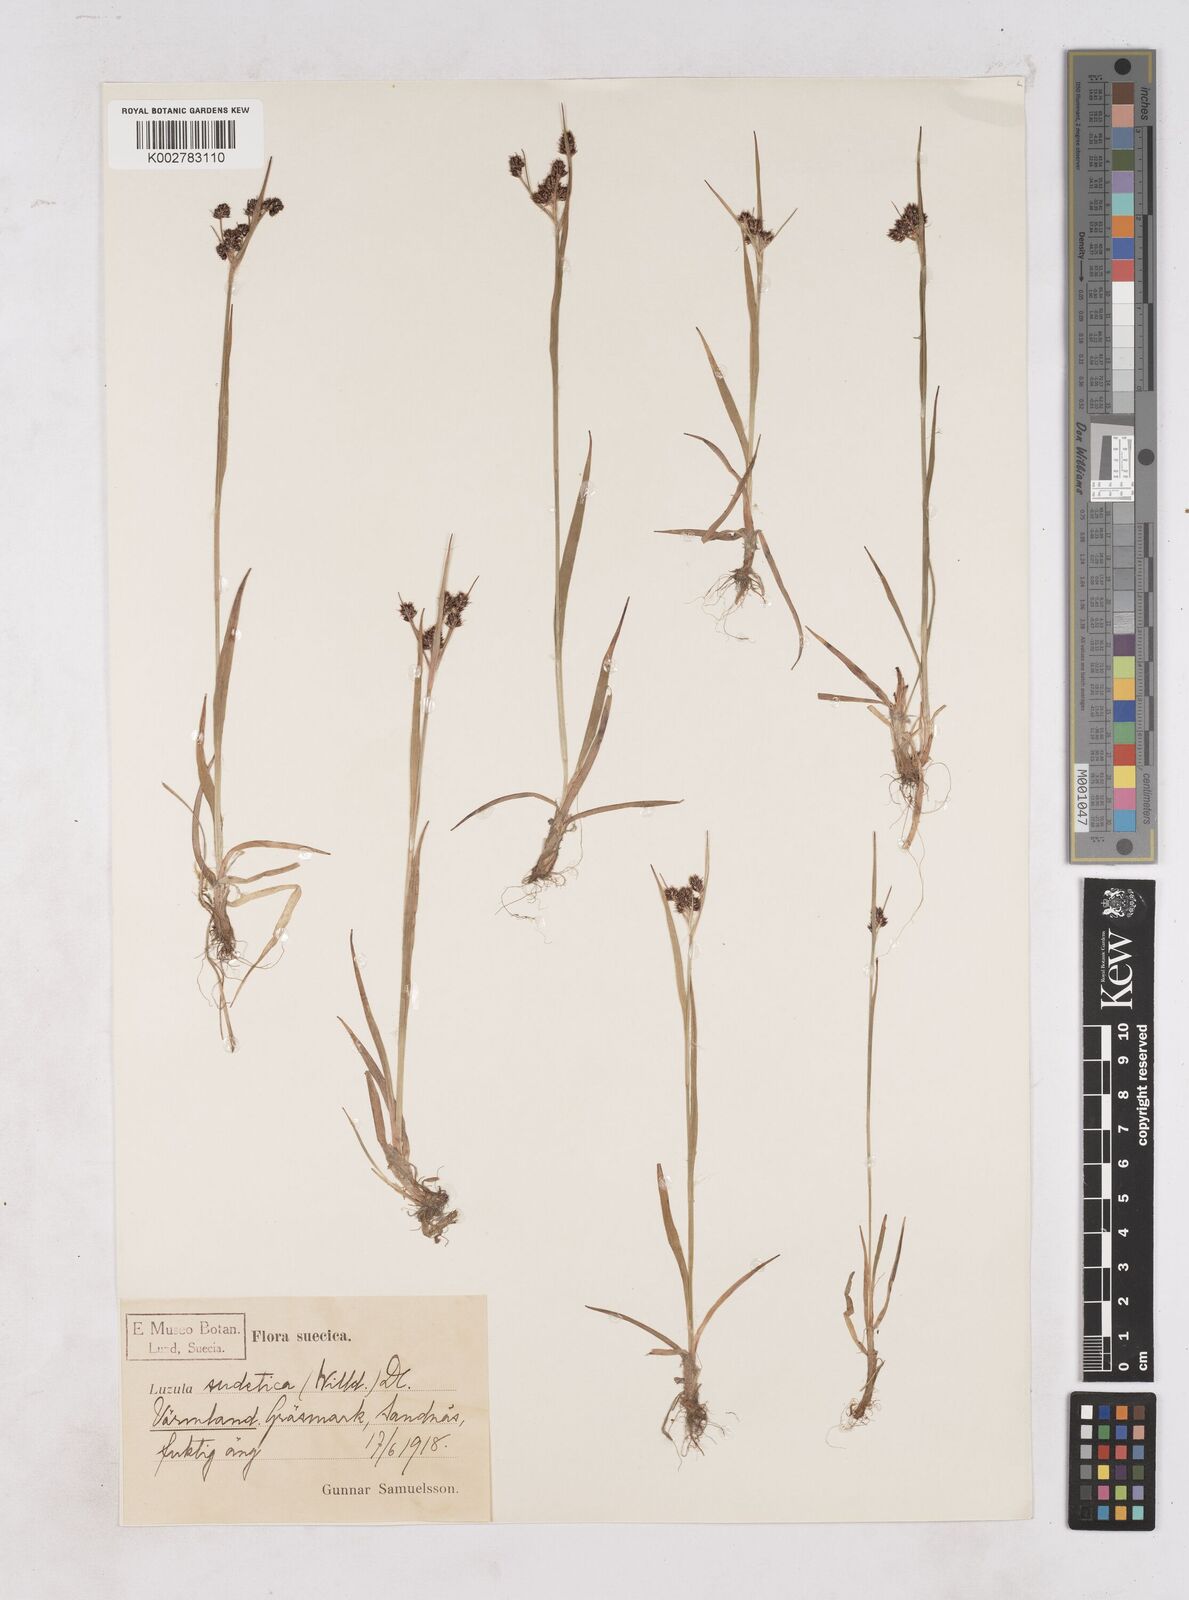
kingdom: Plantae
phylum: Tracheophyta
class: Liliopsida
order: Poales
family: Juncaceae
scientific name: Juncaceae
